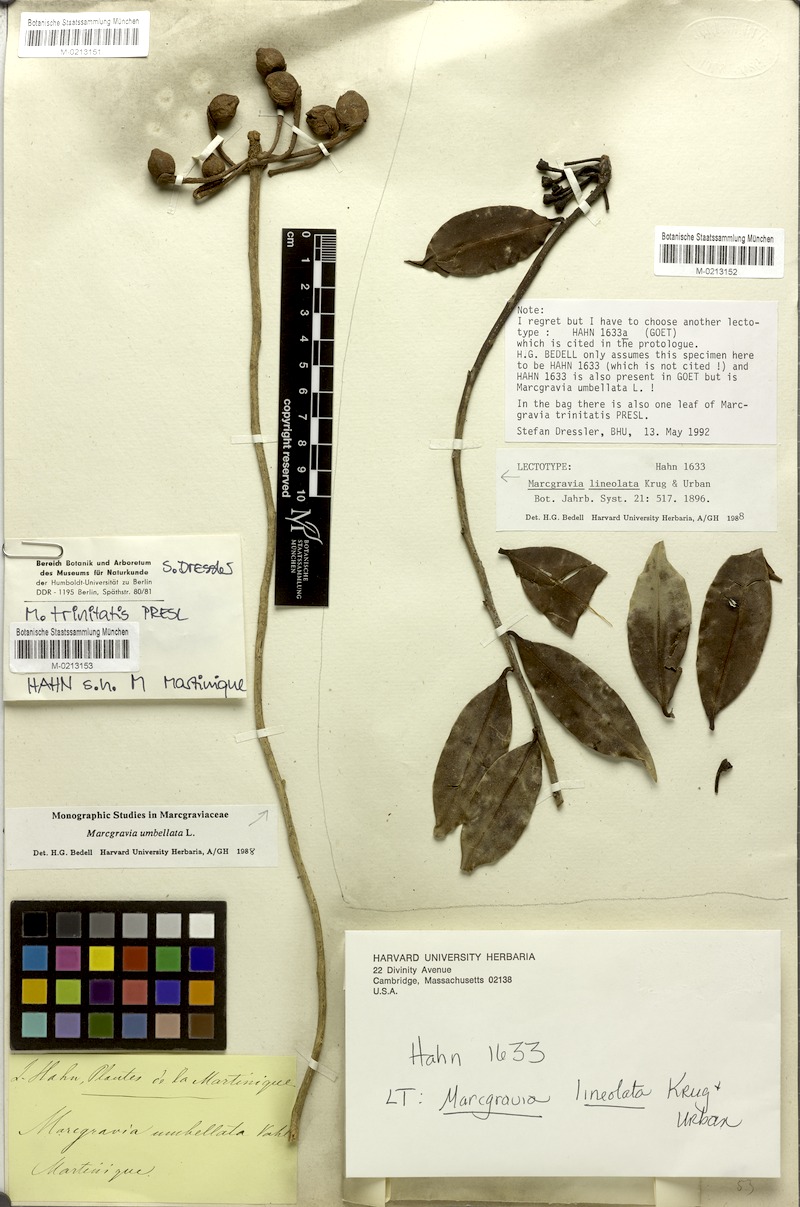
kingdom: Plantae
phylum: Tracheophyta
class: Magnoliopsida
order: Ericales
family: Marcgraviaceae
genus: Marcgravia
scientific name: Marcgravia lineolata
